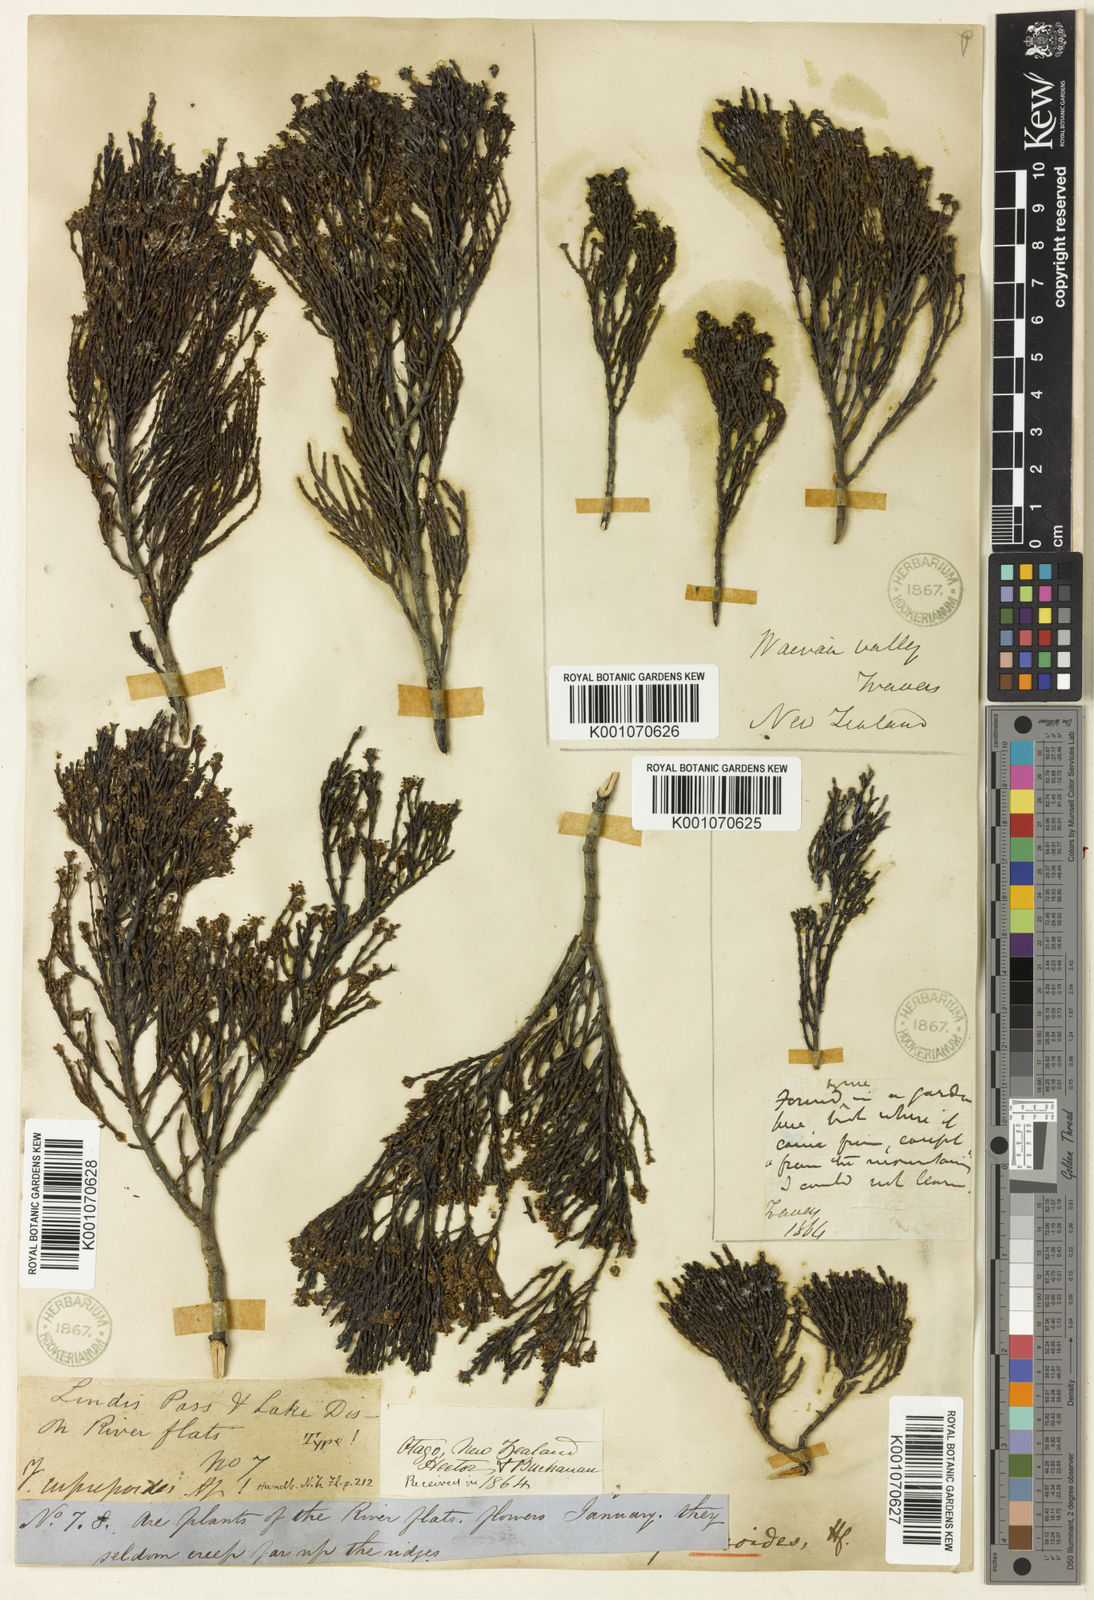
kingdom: Plantae
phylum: Tracheophyta
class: Magnoliopsida
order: Lamiales
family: Plantaginaceae
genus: Veronica
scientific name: Veronica cupressoides
